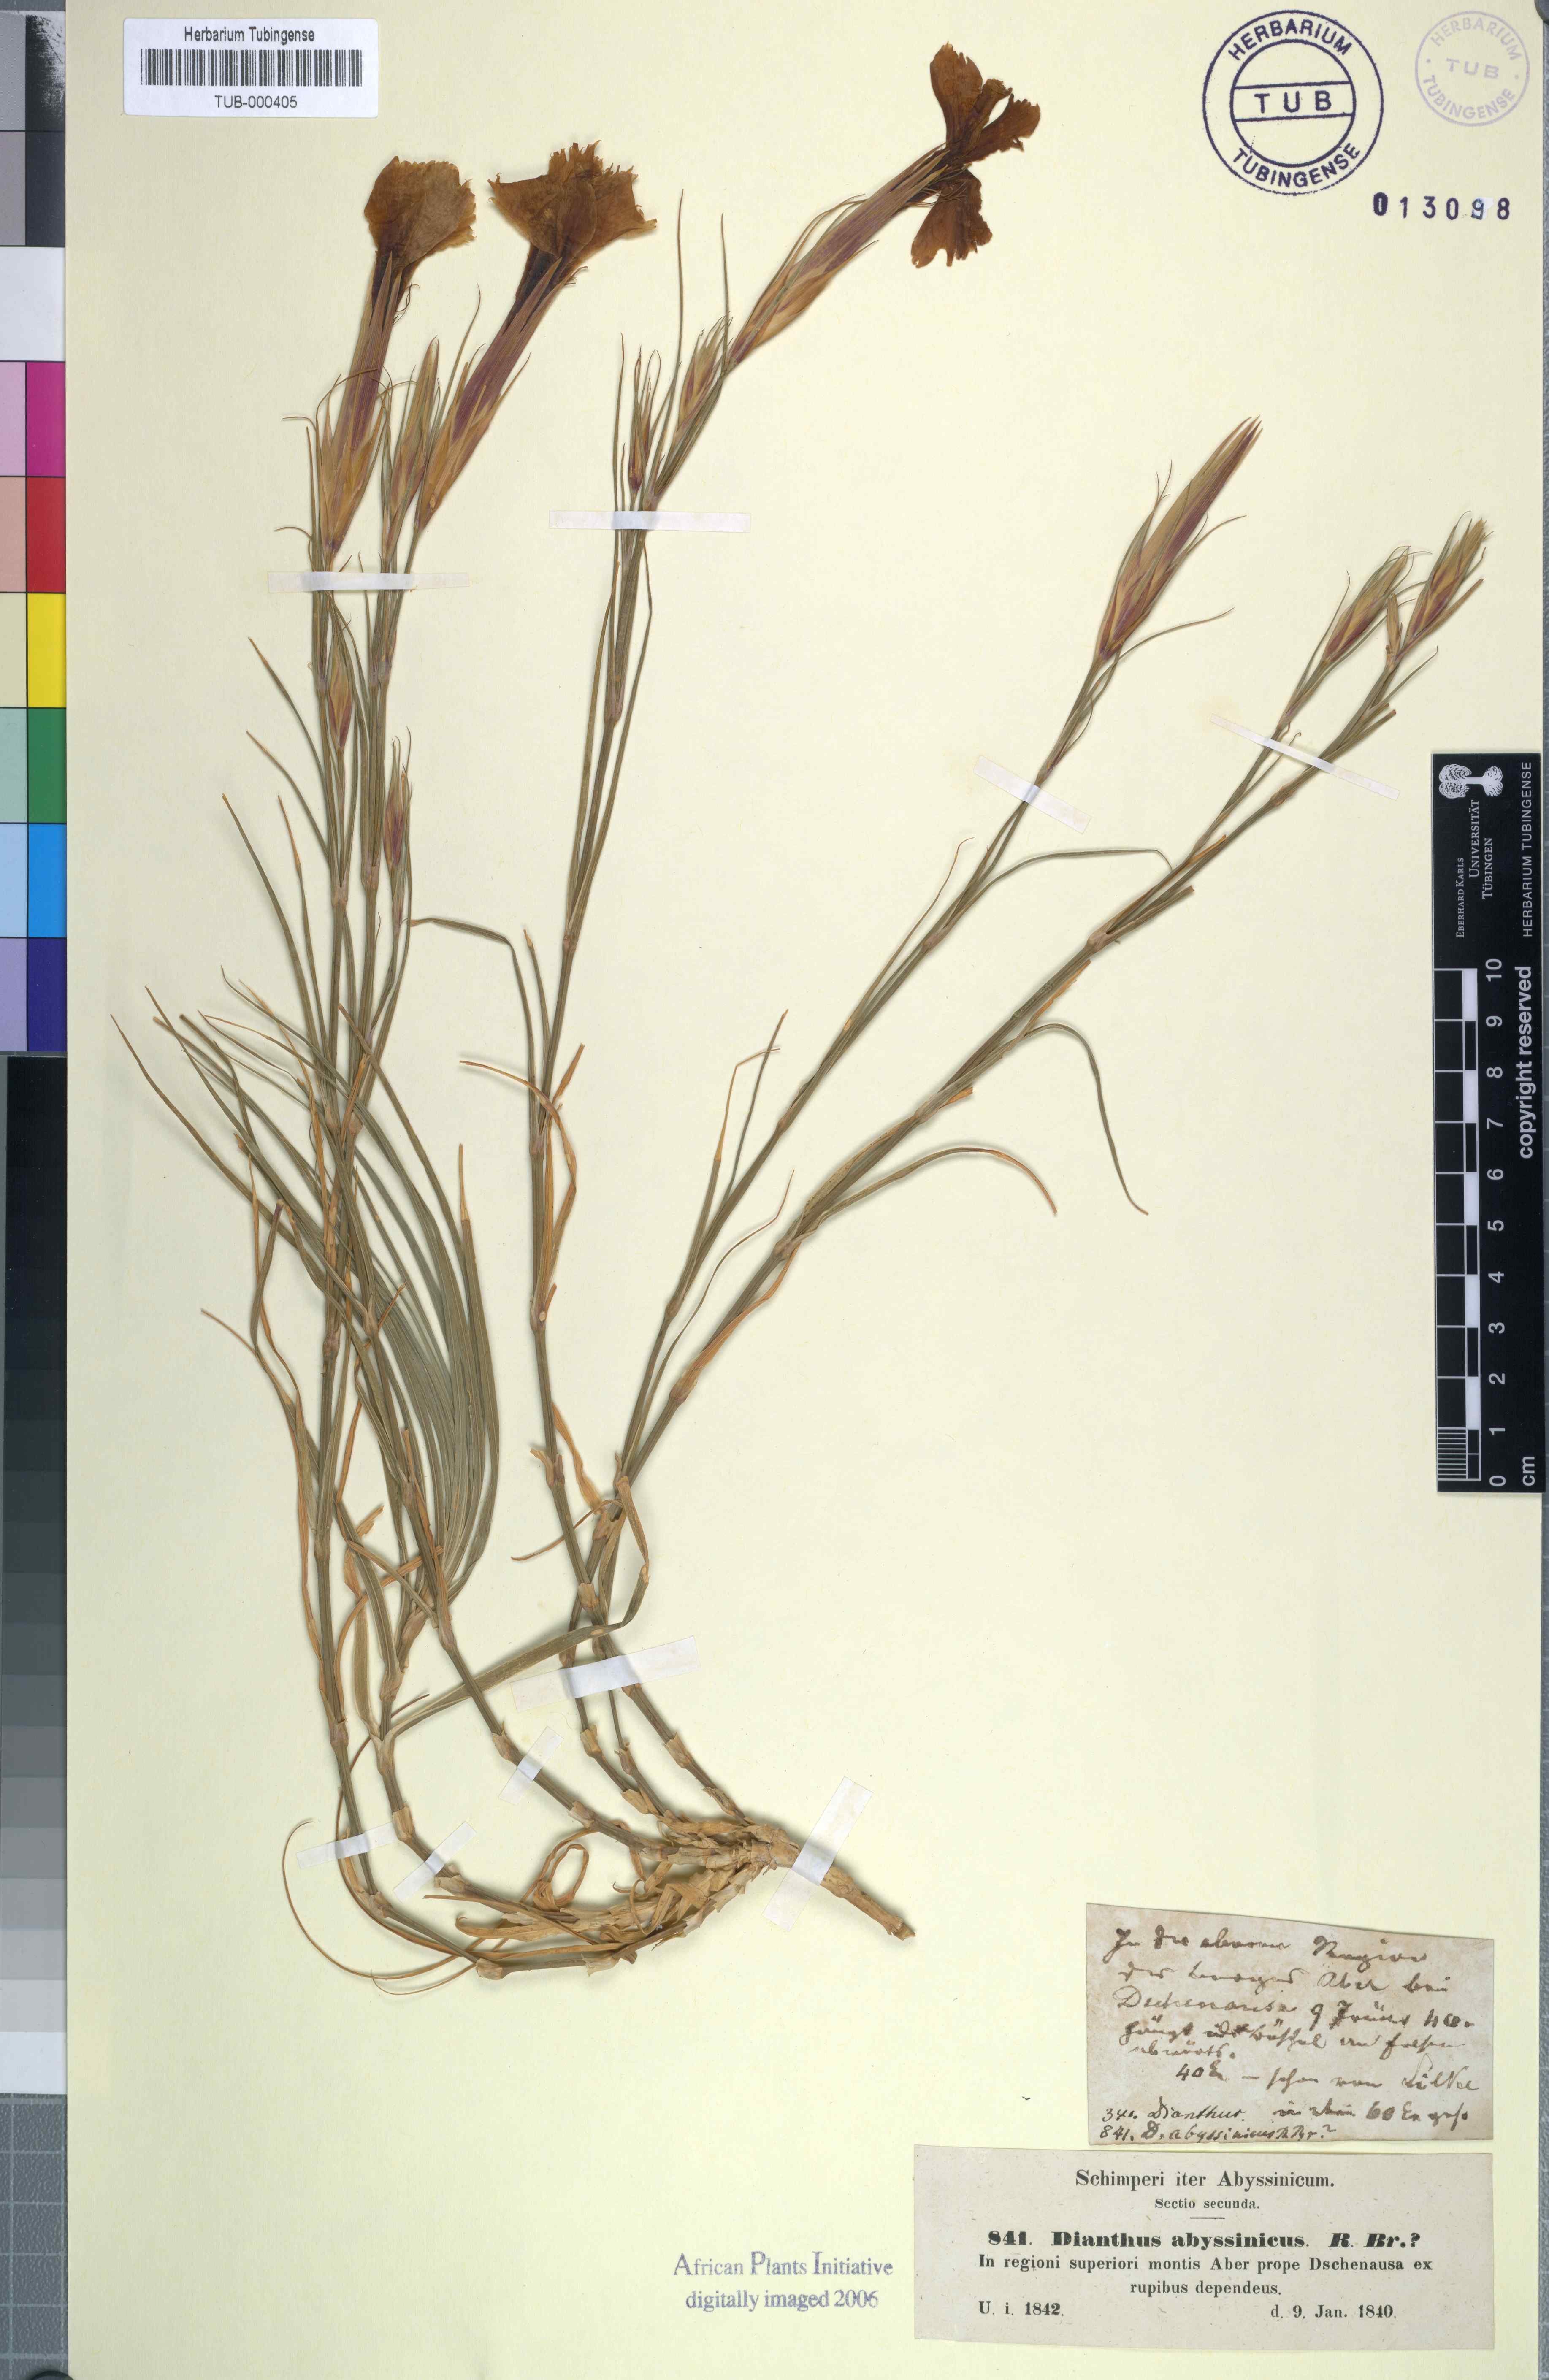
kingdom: Plantae
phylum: Tracheophyta
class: Magnoliopsida
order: Caryophyllales
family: Caryophyllaceae
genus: Dianthus
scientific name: Dianthus leptoloma
